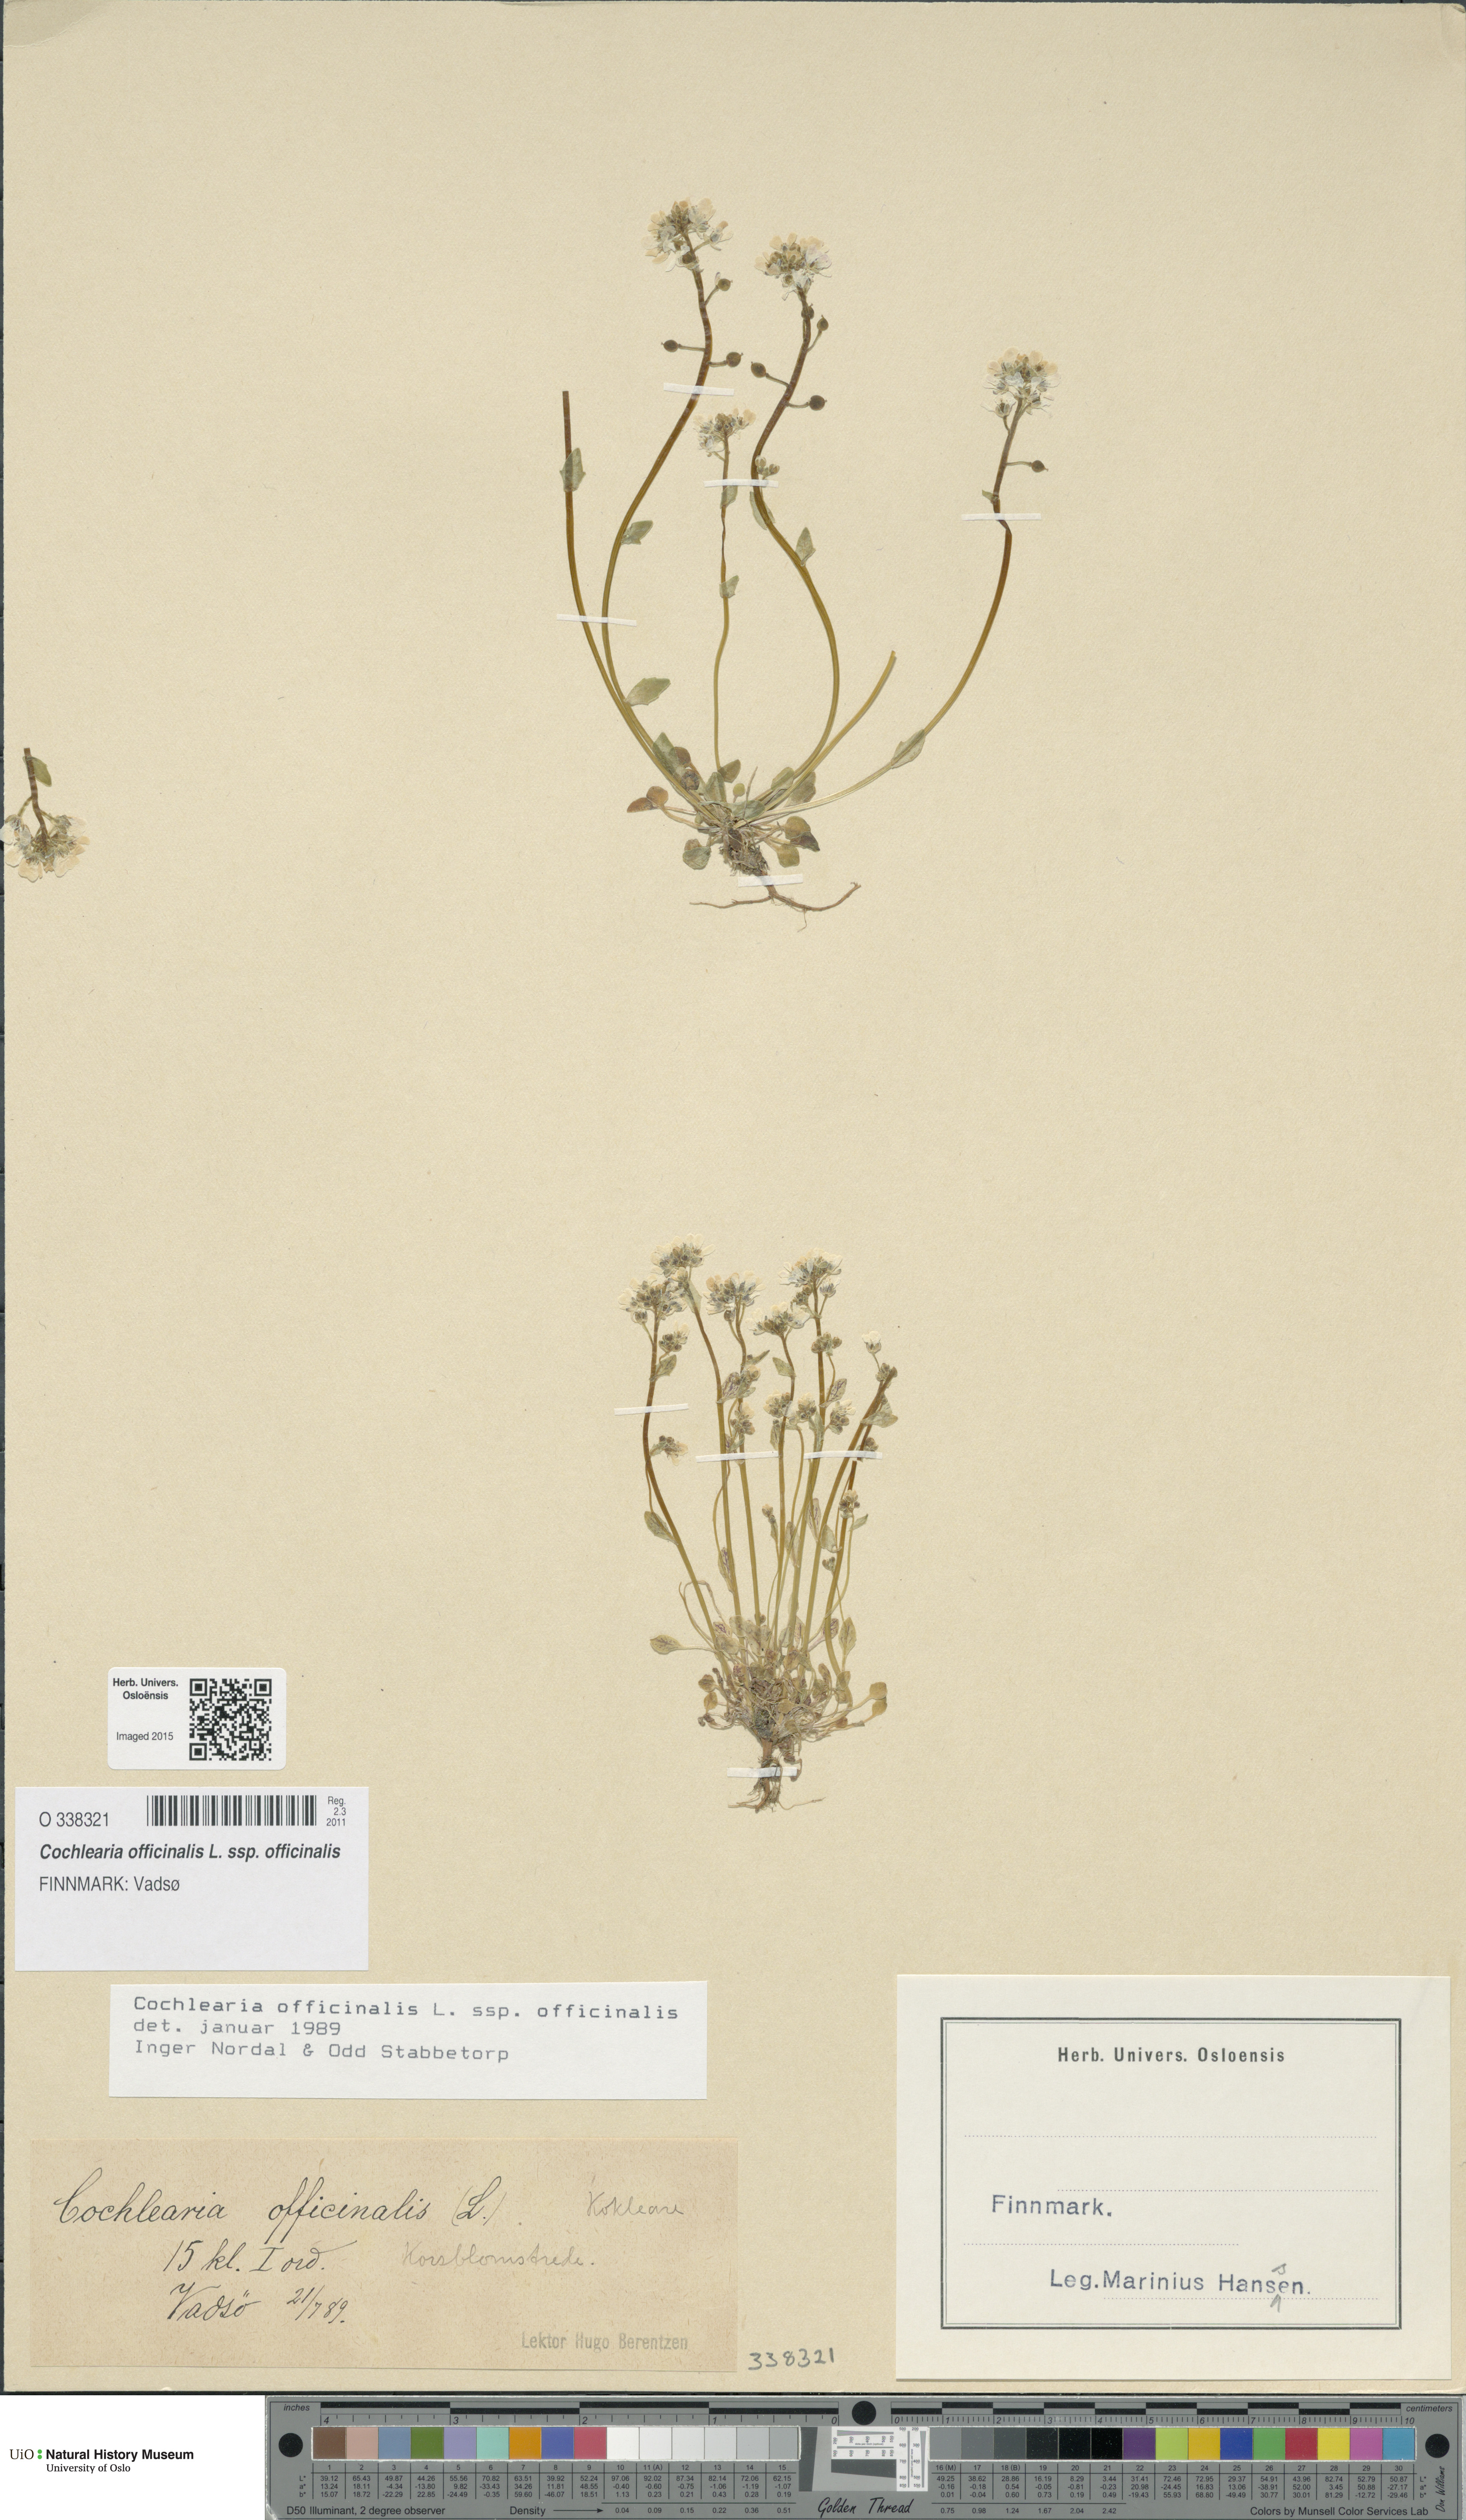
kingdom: Plantae
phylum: Tracheophyta
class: Magnoliopsida
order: Brassicales
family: Brassicaceae
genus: Cochlearia
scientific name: Cochlearia officinalis
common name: Scurvy-grass
